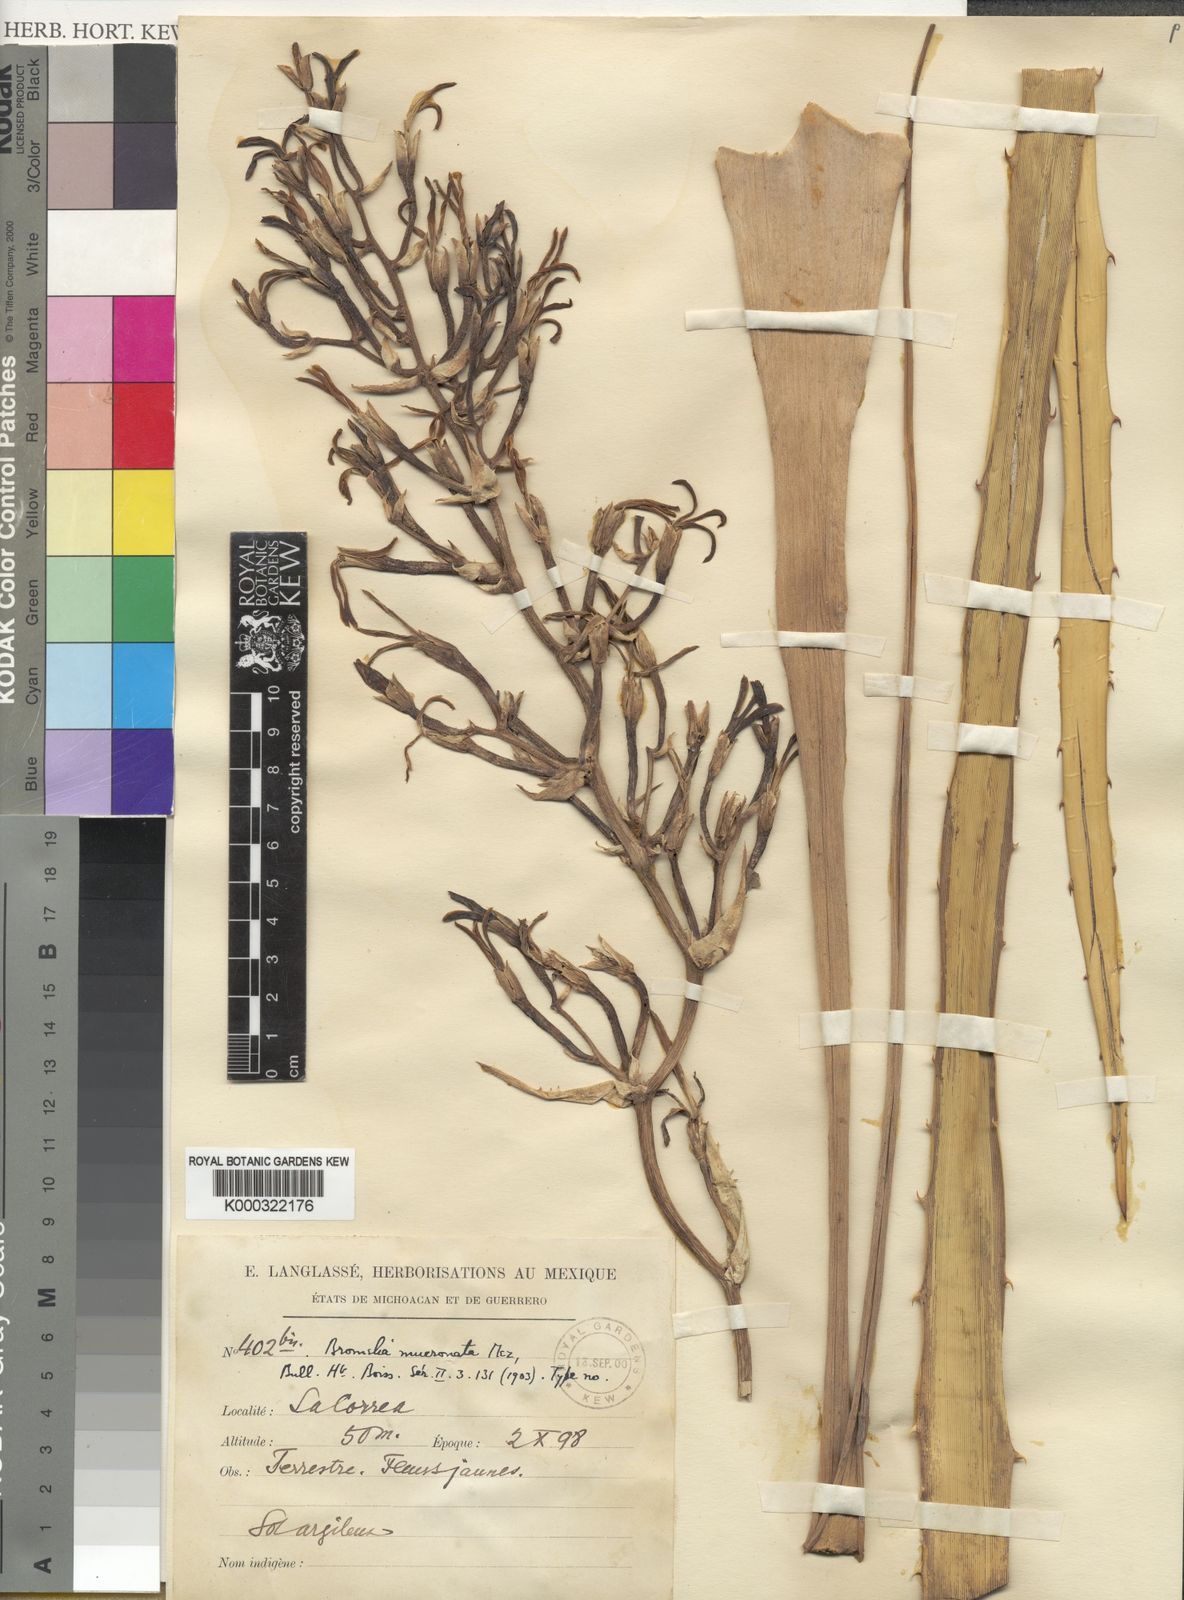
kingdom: Plantae
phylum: Tracheophyta
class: Liliopsida
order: Poales
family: Bromeliaceae
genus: Bromelia
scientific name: Bromelia palmeri
